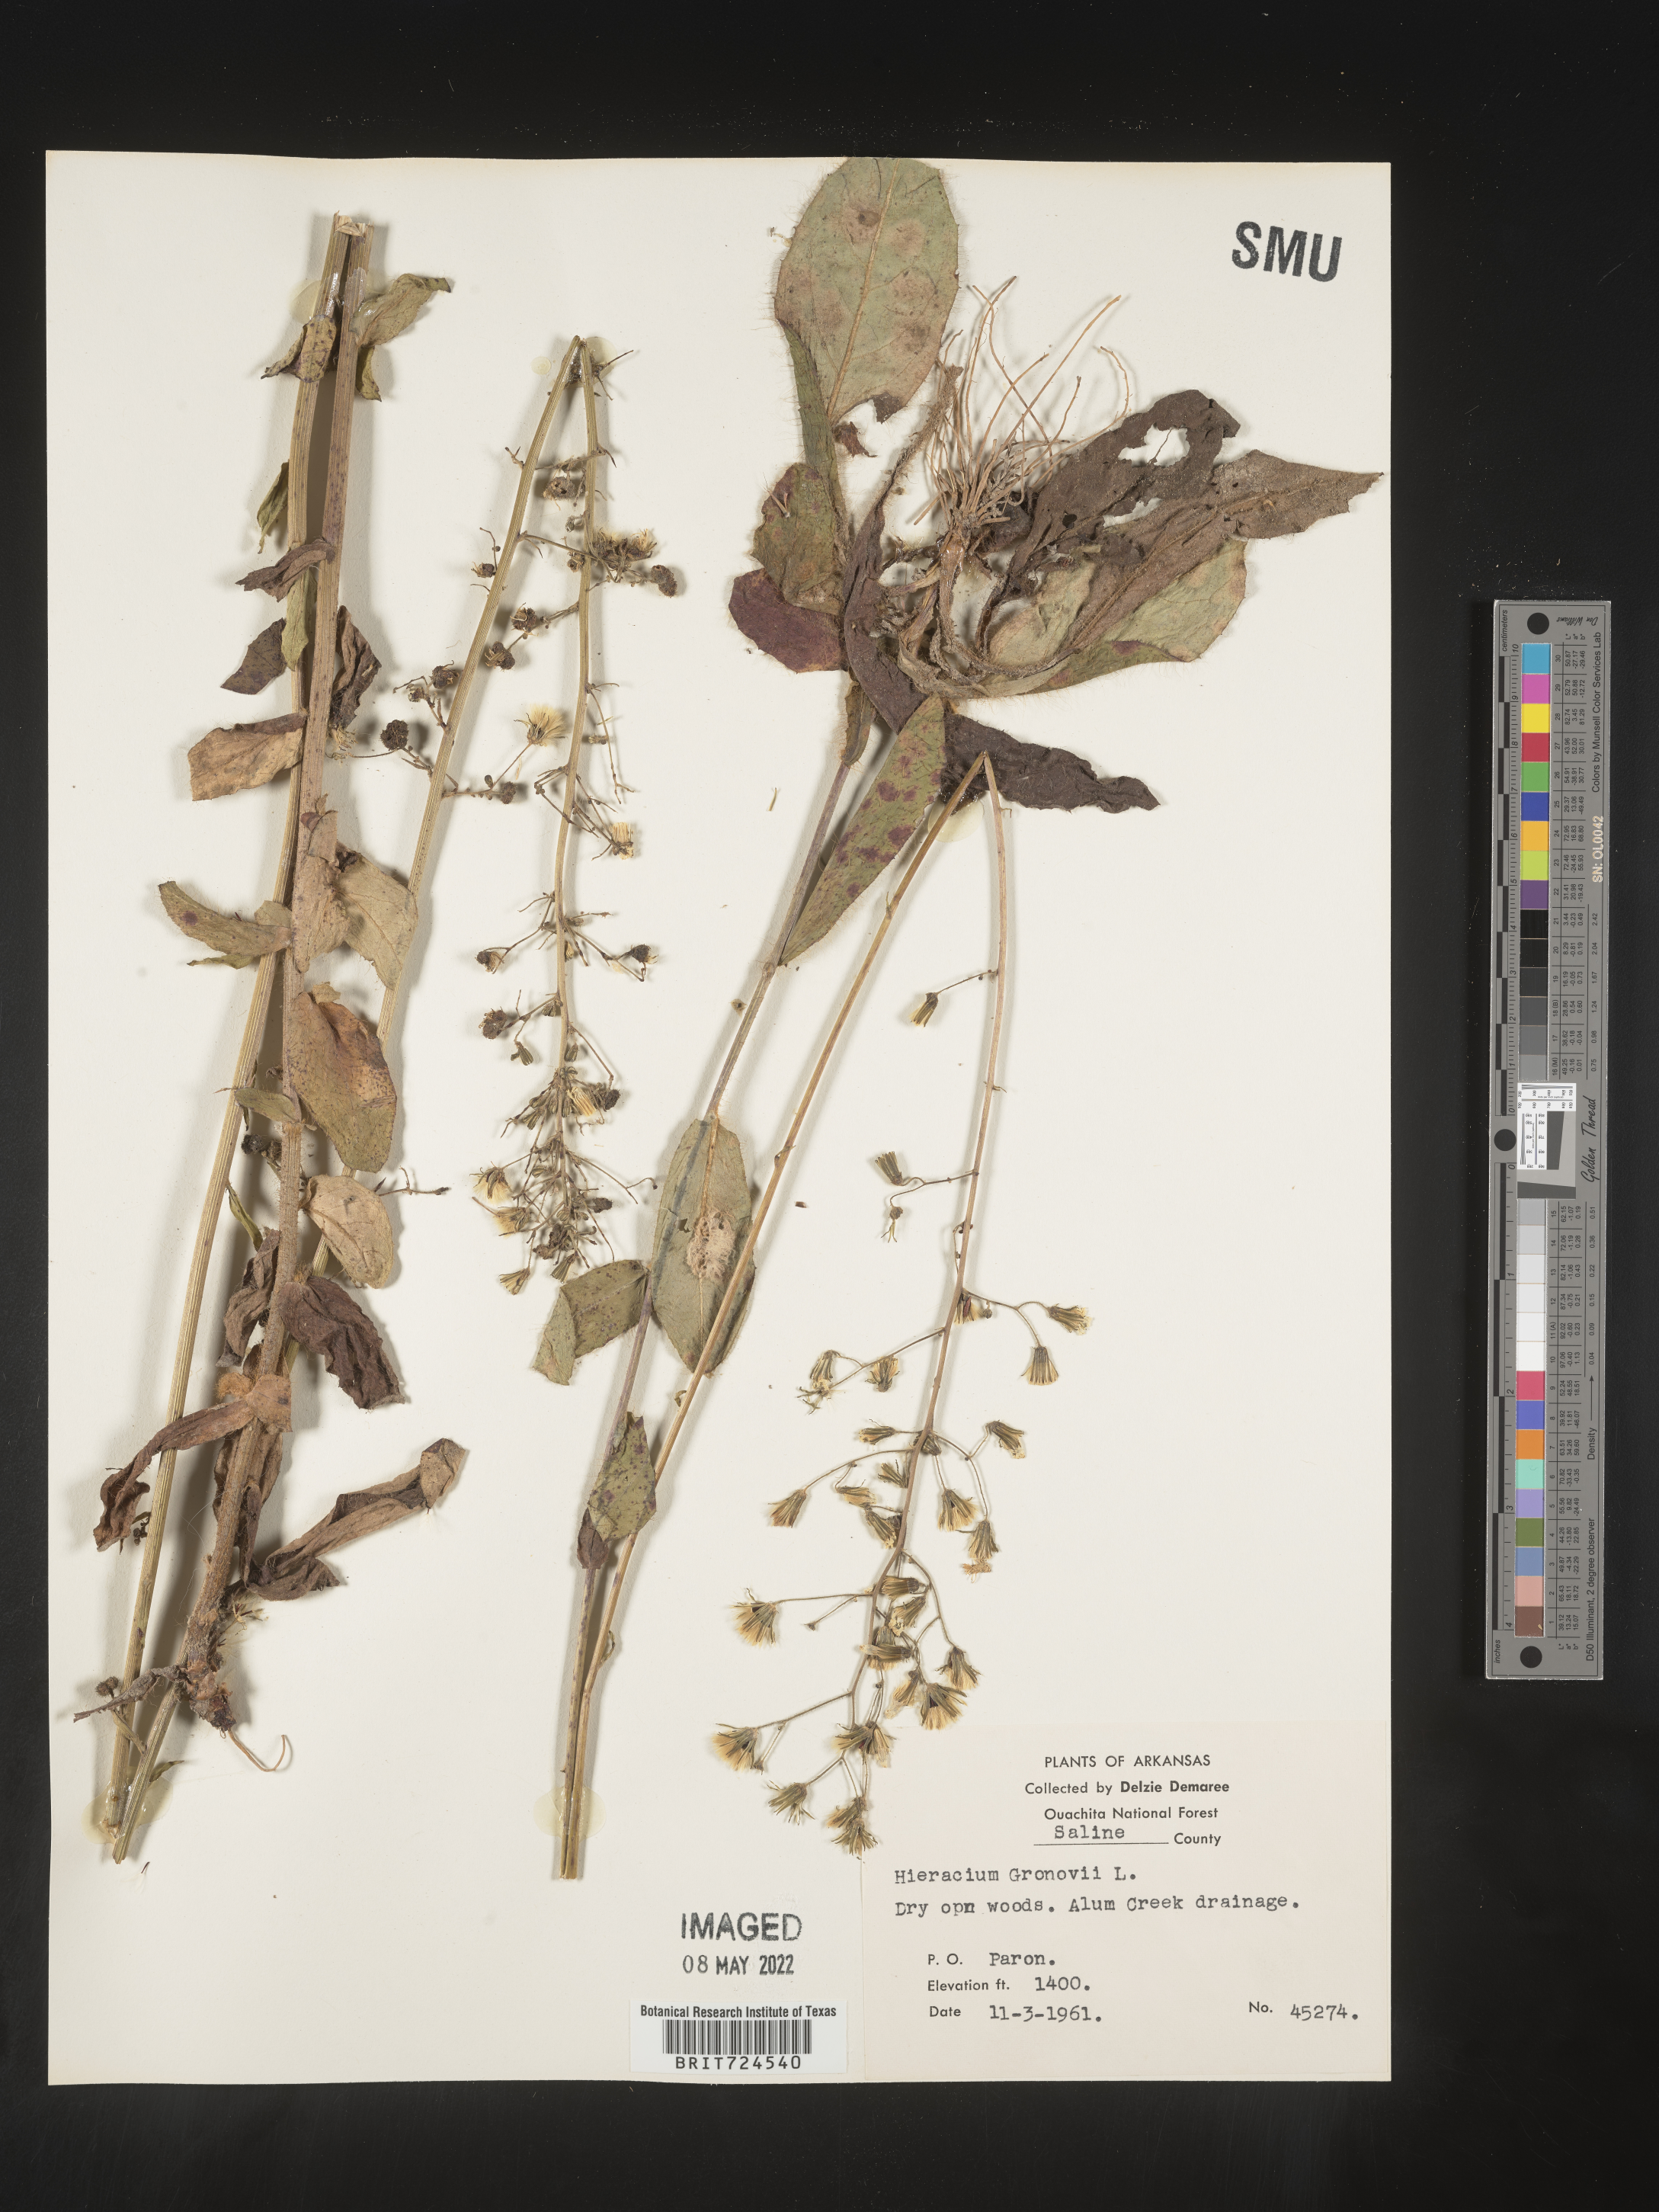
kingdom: Plantae
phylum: Tracheophyta
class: Magnoliopsida
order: Asterales
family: Asteraceae
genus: Hieracium
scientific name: Hieracium gronovii
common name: Beaked hawkweed
